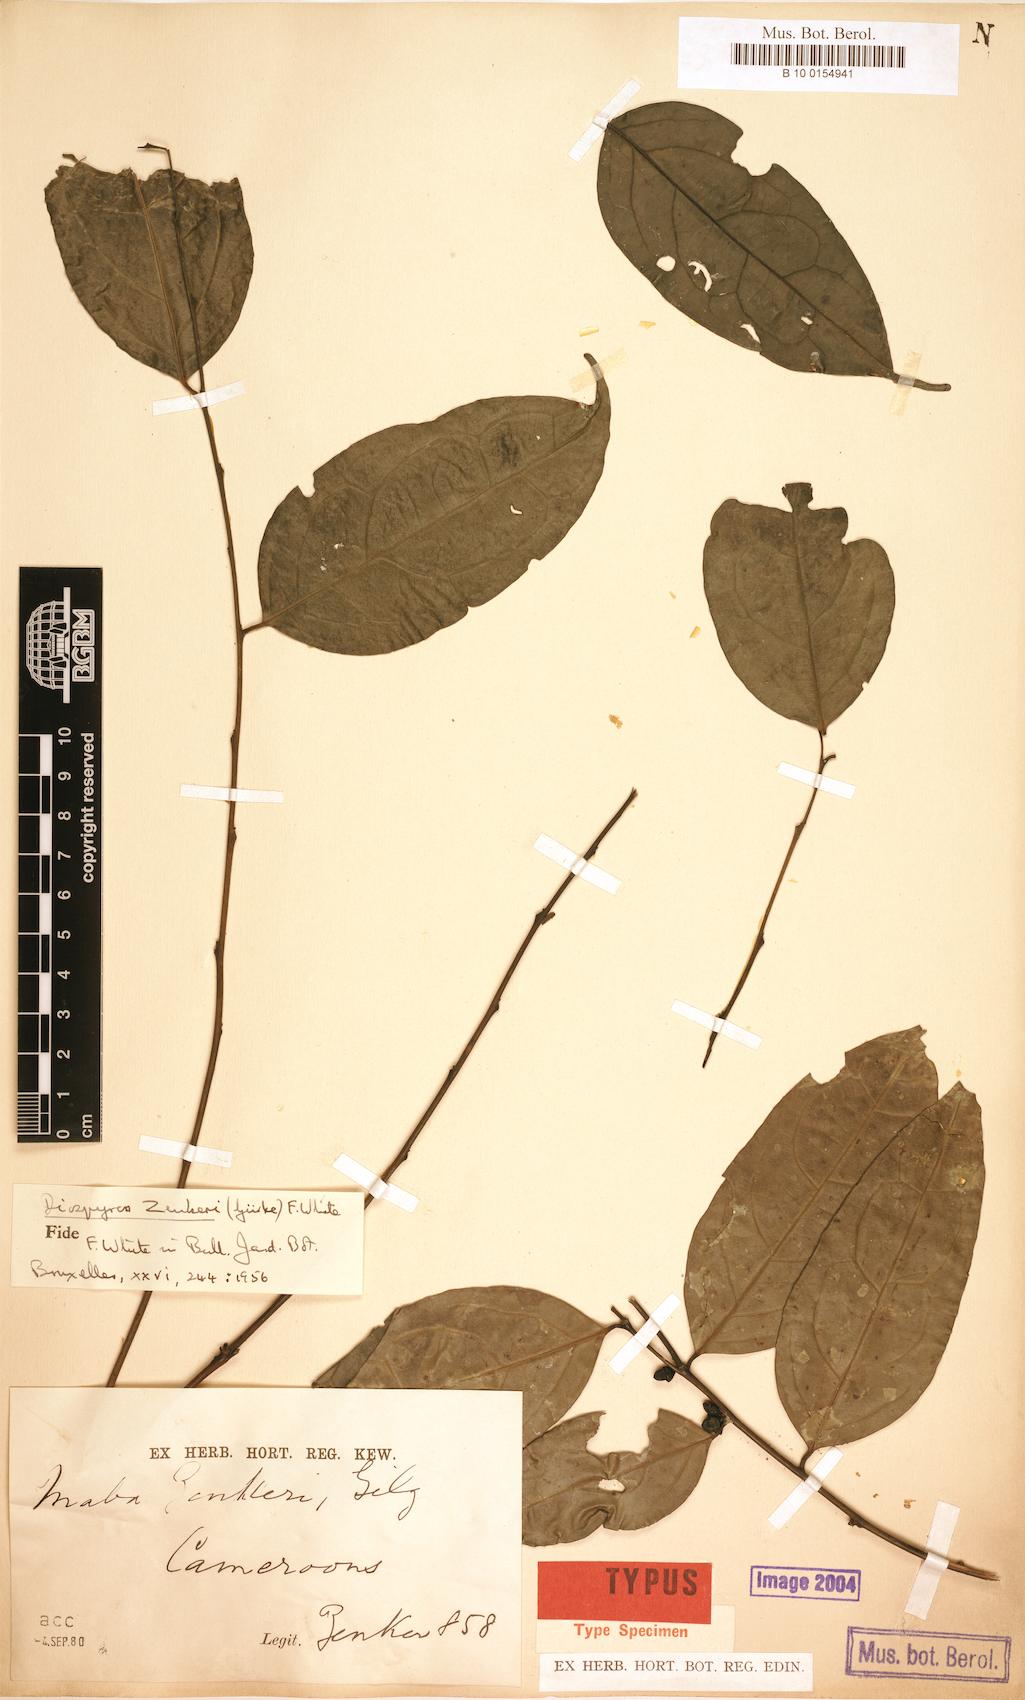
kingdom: Plantae
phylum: Tracheophyta
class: Magnoliopsida
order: Ericales
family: Ebenaceae
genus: Diospyros
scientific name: Diospyros zenkeri
